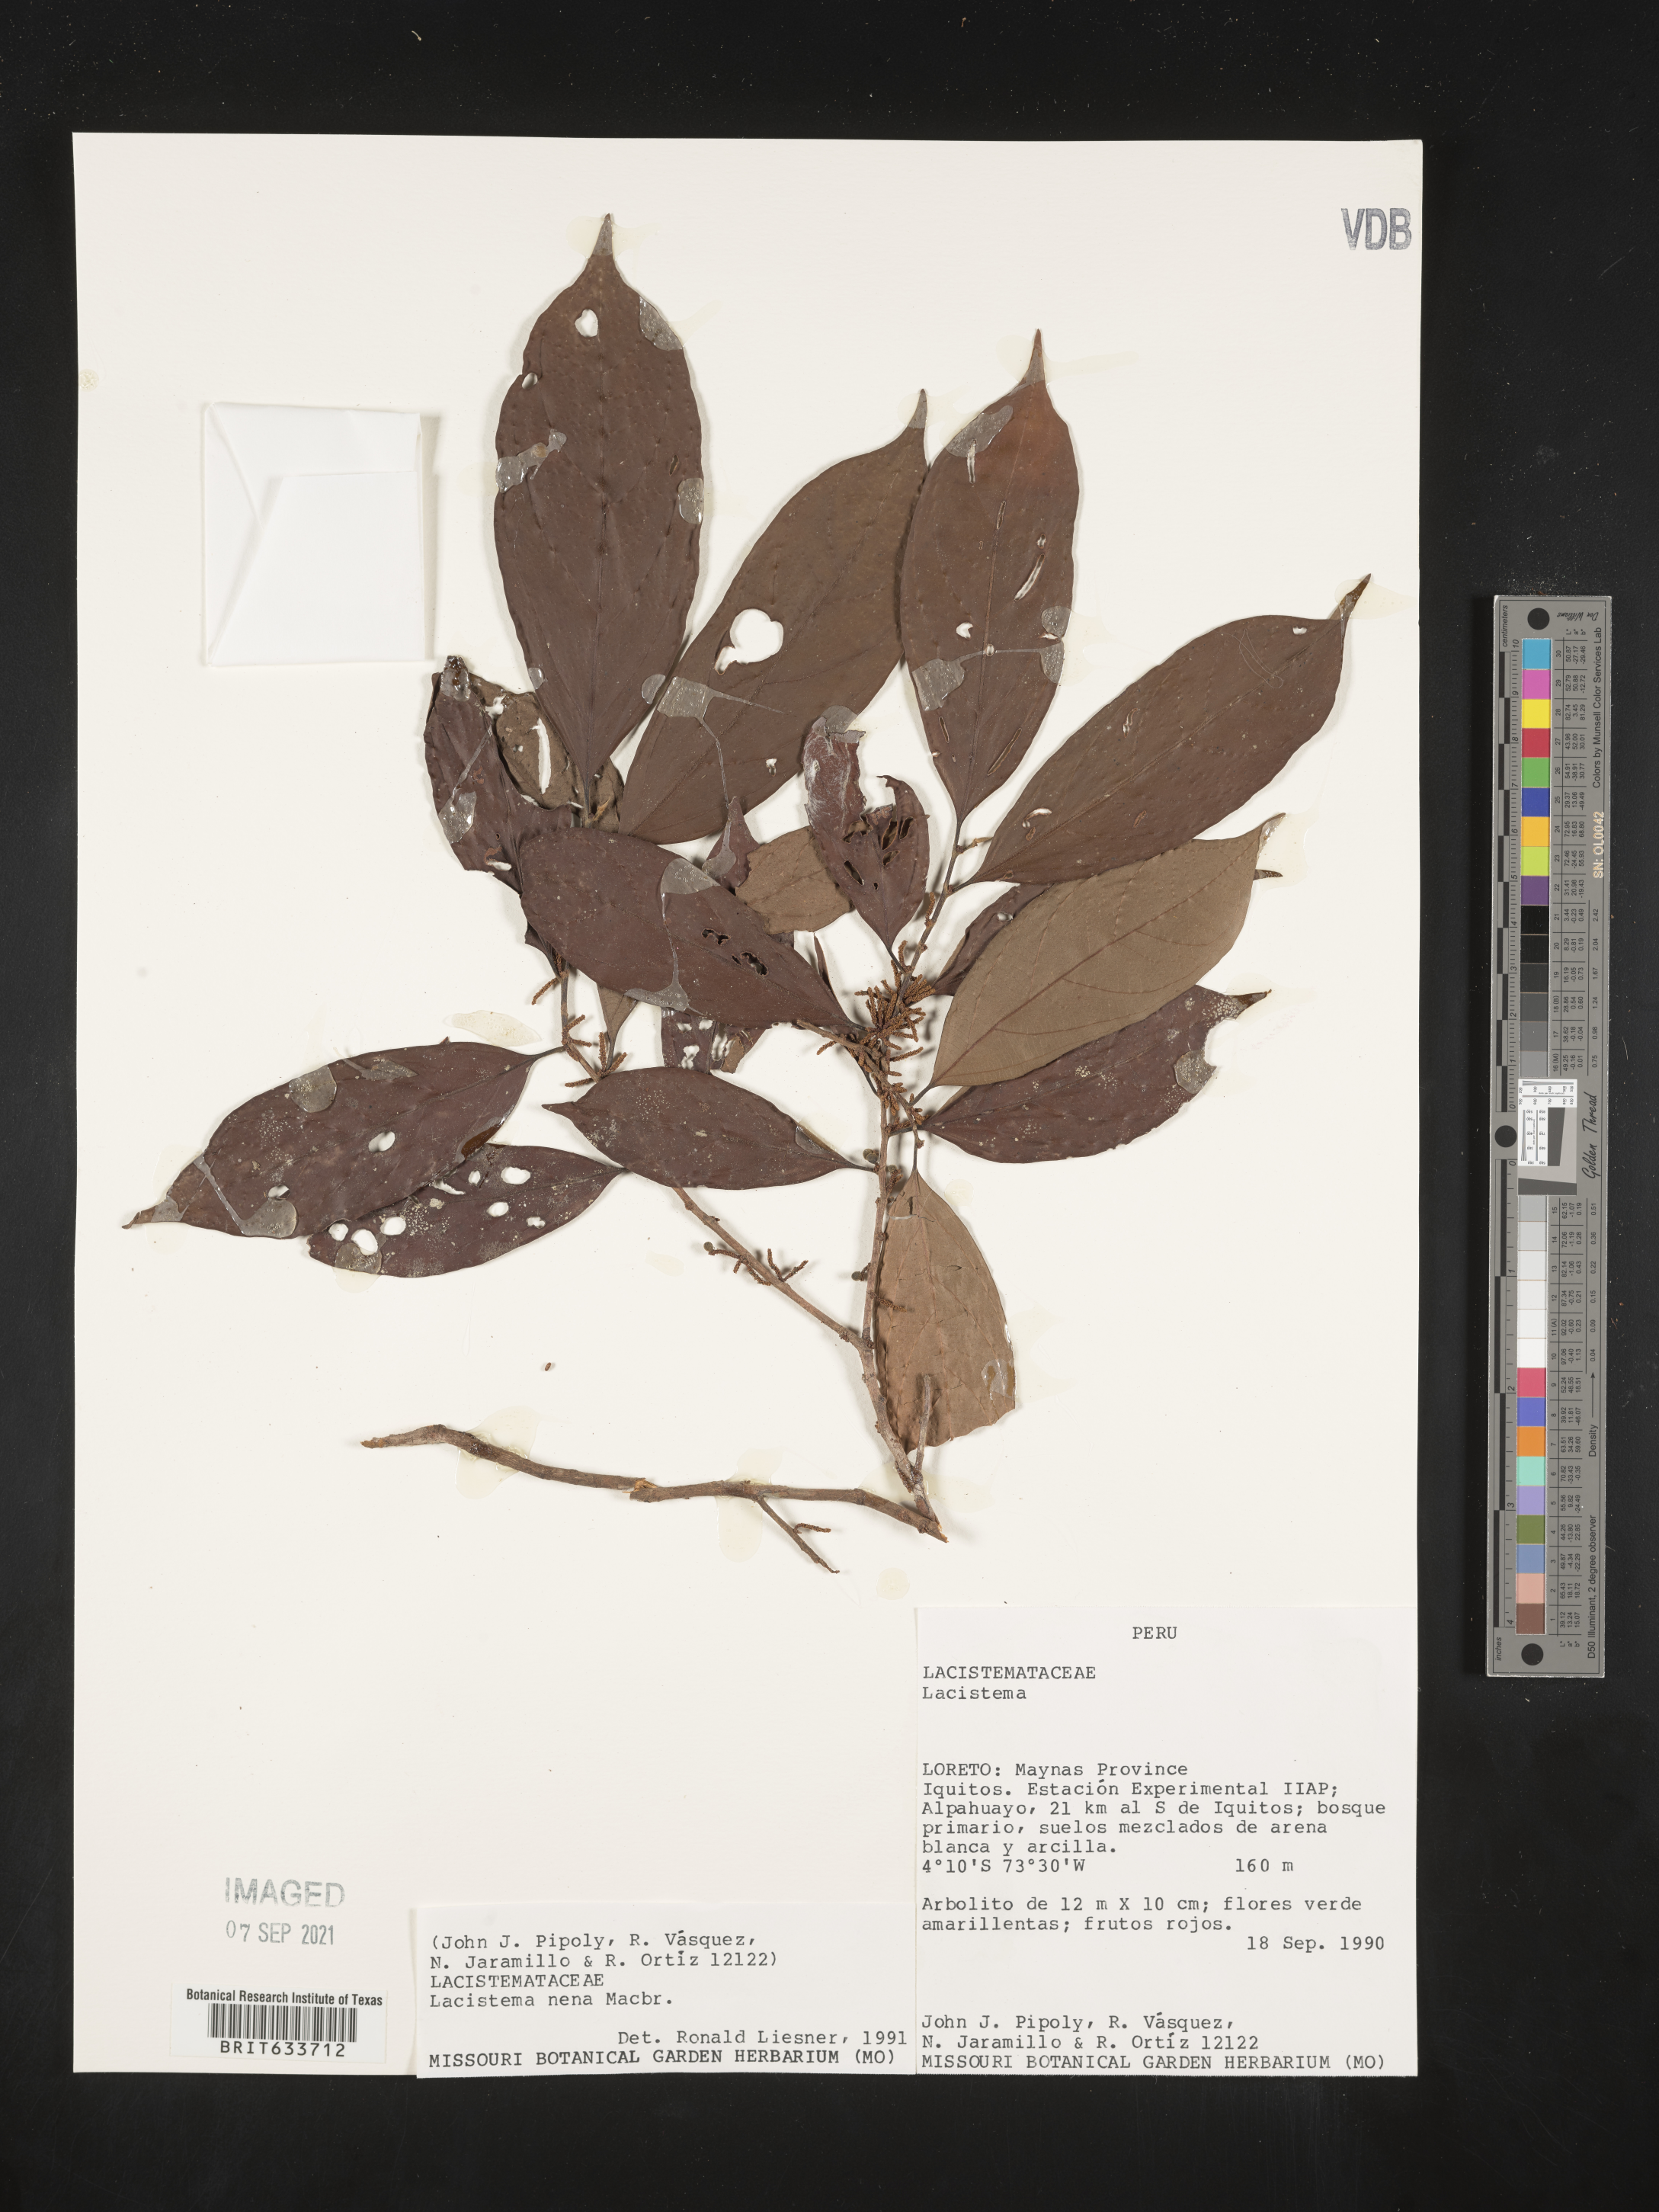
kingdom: Plantae
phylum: Tracheophyta
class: Magnoliopsida
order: Malpighiales
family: Lacistemataceae
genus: Lacistema
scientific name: Lacistema
